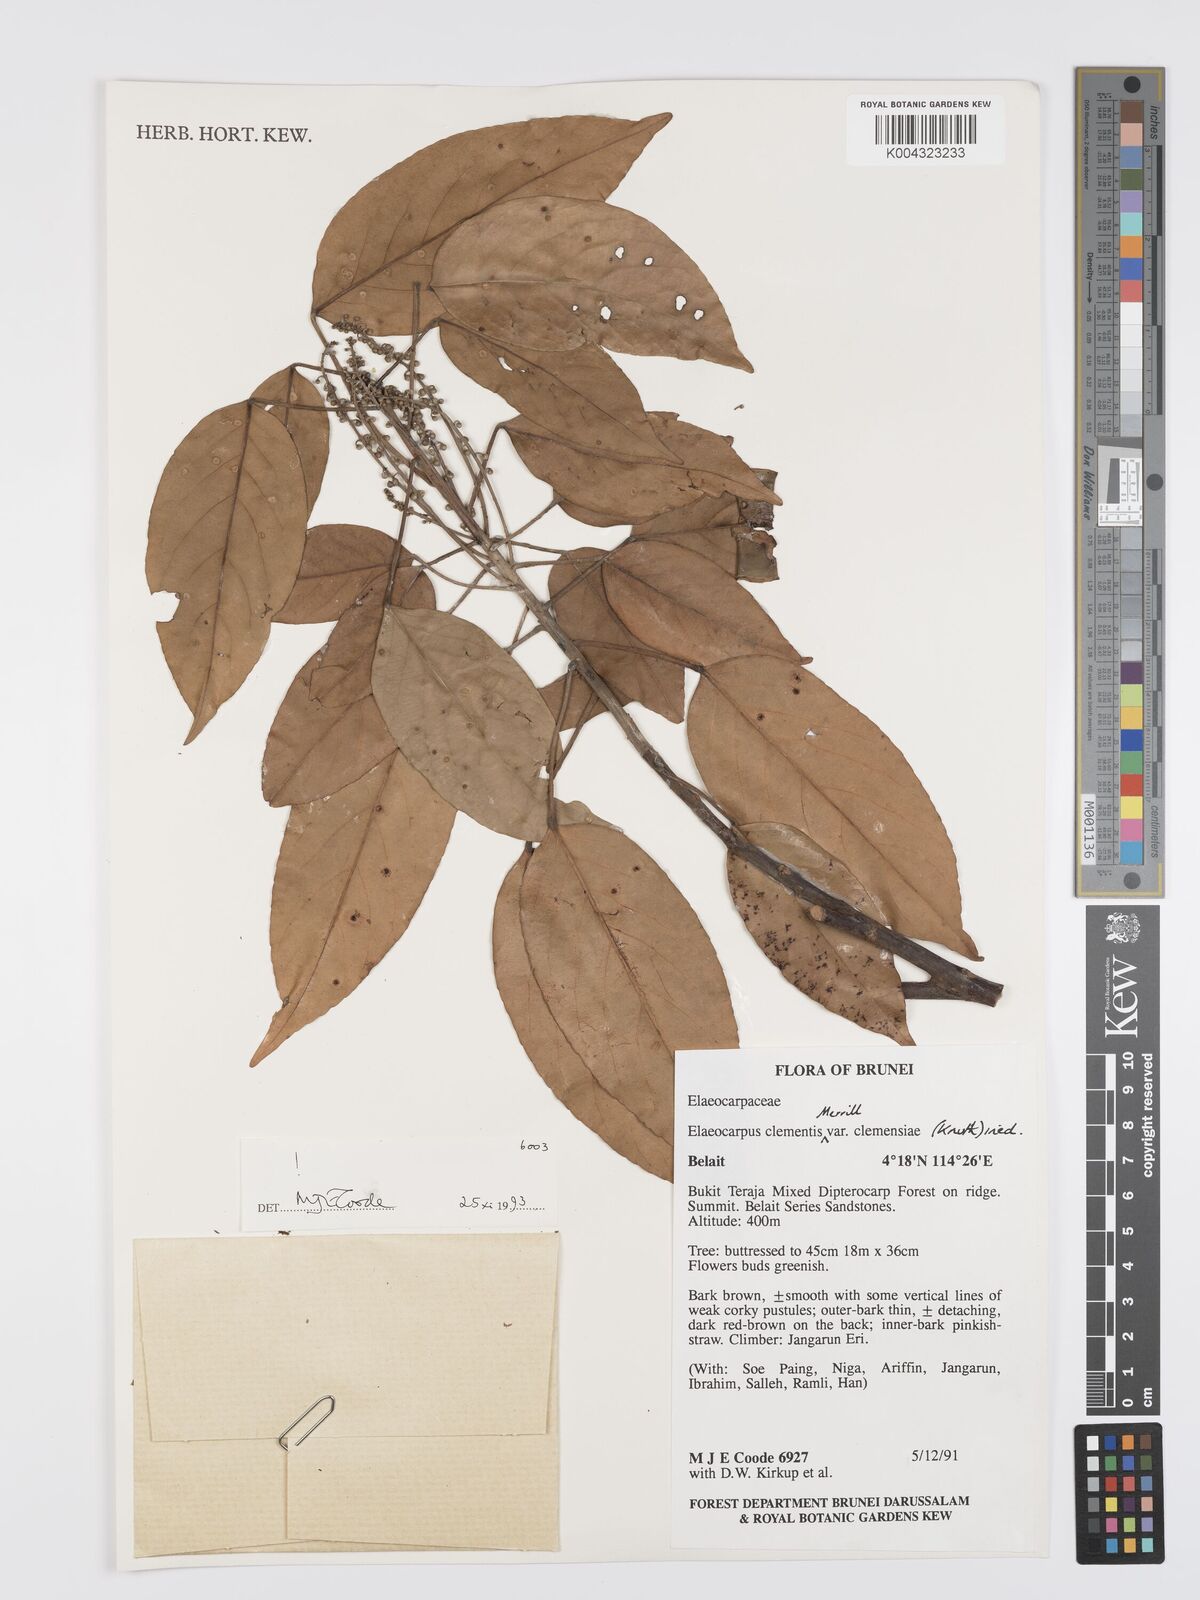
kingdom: Plantae
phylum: Tracheophyta
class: Magnoliopsida
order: Oxalidales
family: Elaeocarpaceae
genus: Elaeocarpus
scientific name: Elaeocarpus clementis
